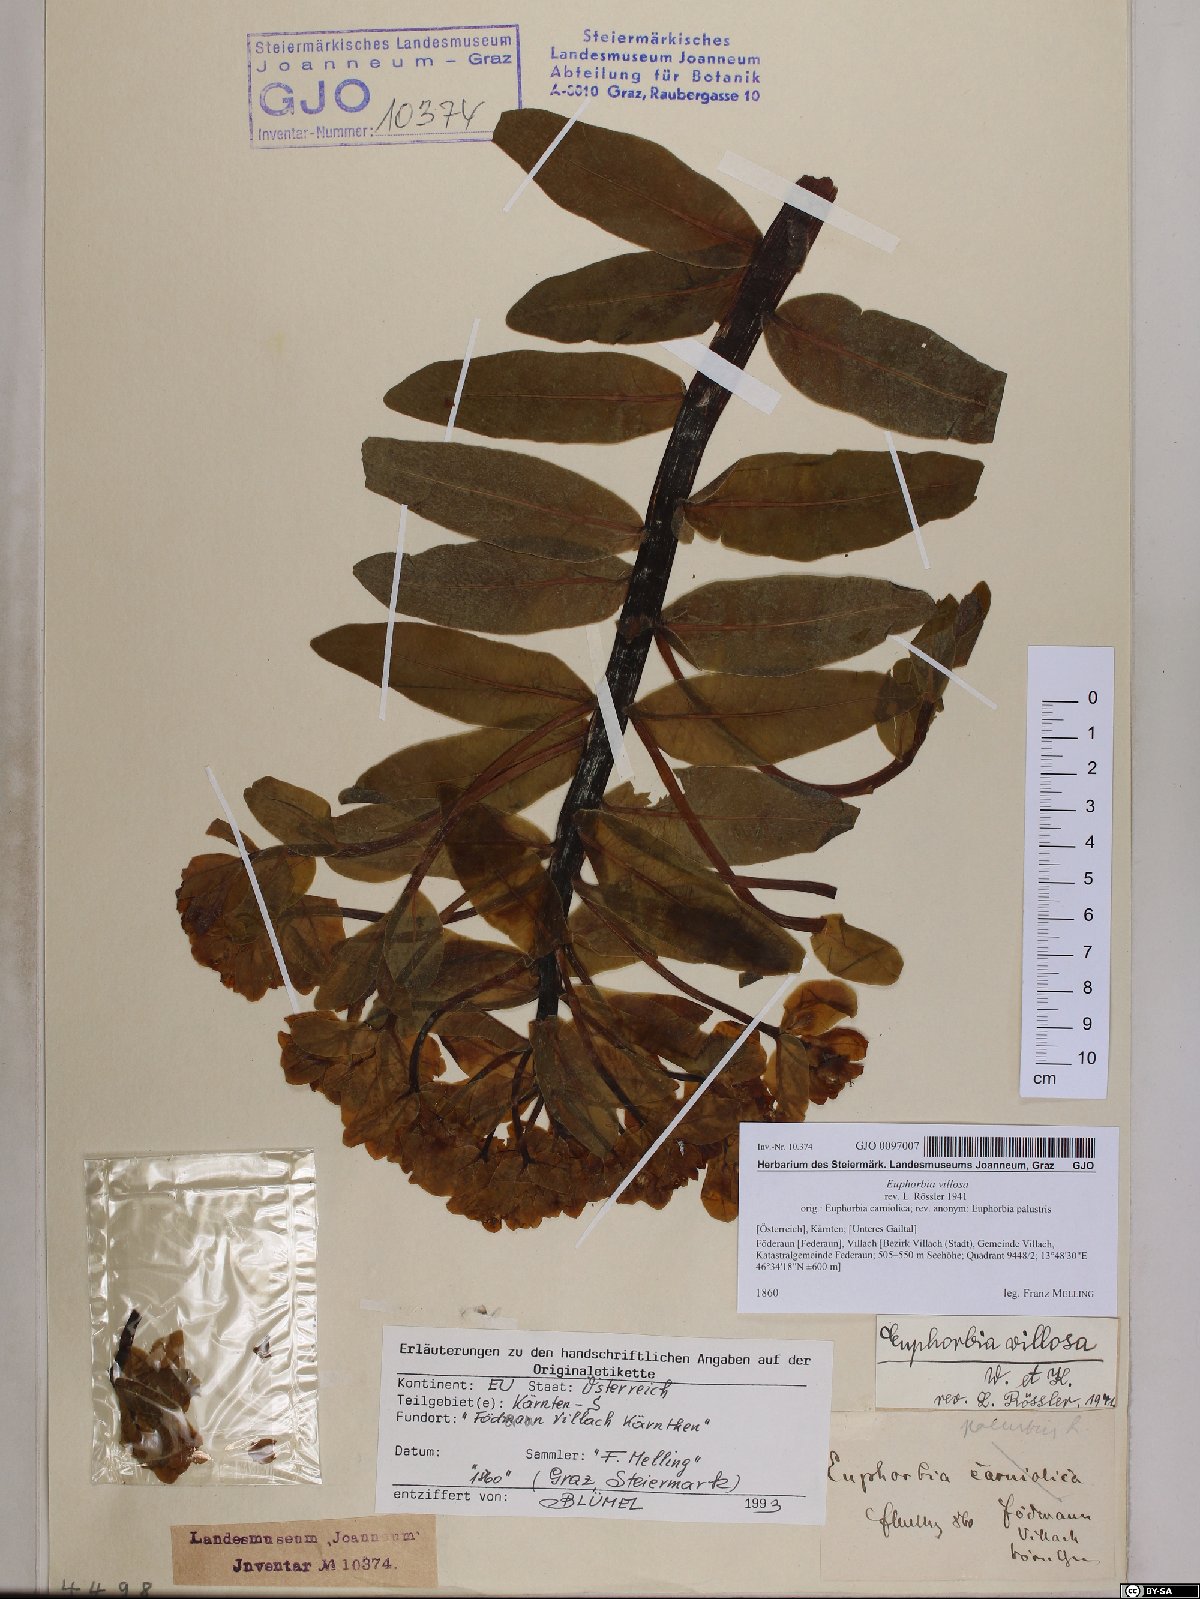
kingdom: Plantae
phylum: Tracheophyta
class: Magnoliopsida
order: Malpighiales
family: Euphorbiaceae
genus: Euphorbia
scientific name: Euphorbia illirica
